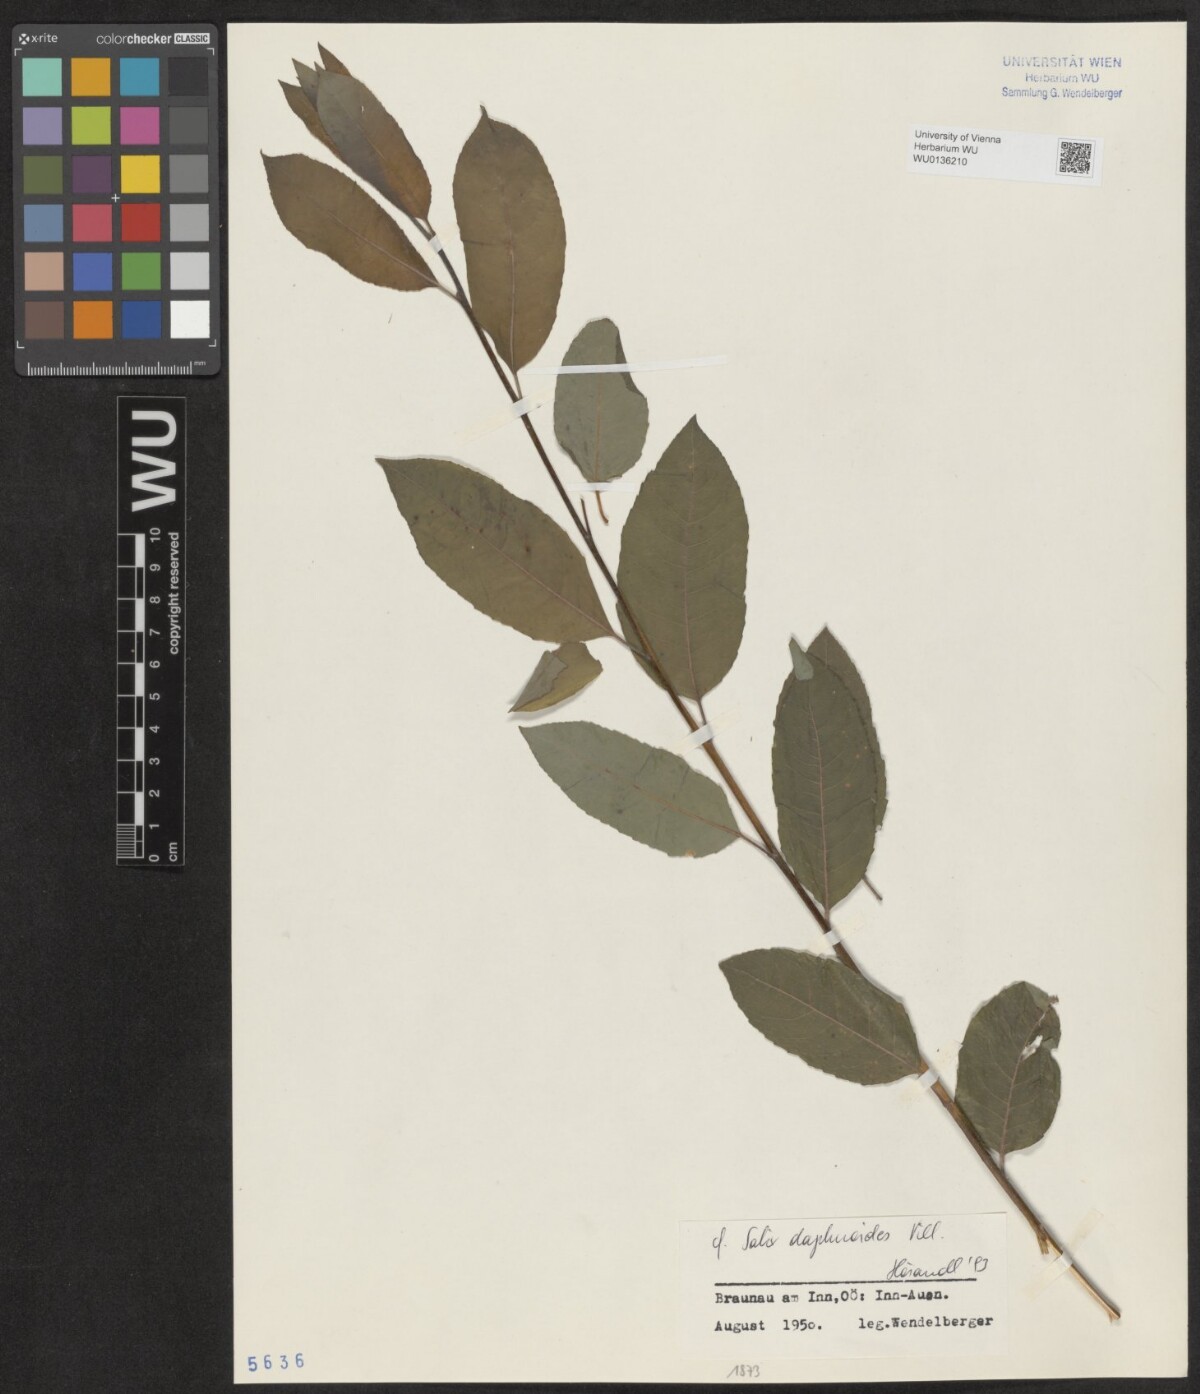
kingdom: Plantae
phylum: Tracheophyta
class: Magnoliopsida
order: Malpighiales
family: Salicaceae
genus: Salix
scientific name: Salix daphnoides
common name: European violet-willow
